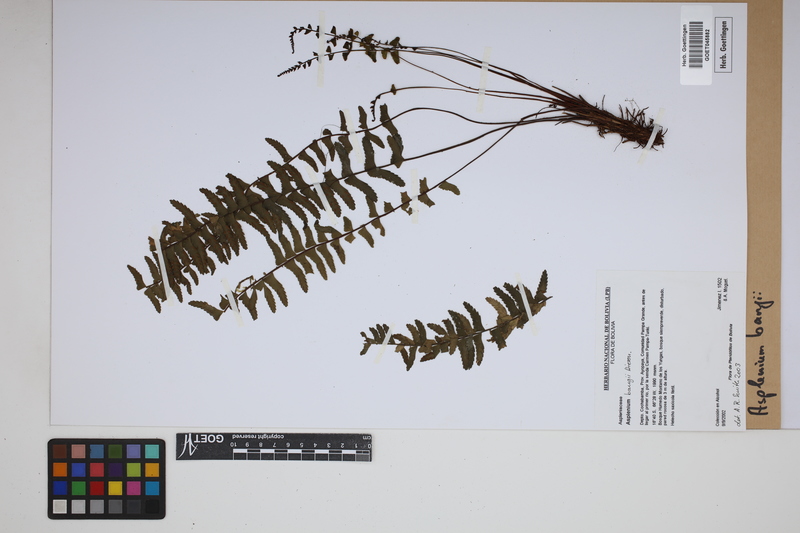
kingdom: Plantae
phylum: Tracheophyta
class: Polypodiopsida
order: Polypodiales
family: Aspleniaceae
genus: Asplenium
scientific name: Asplenium bangii
